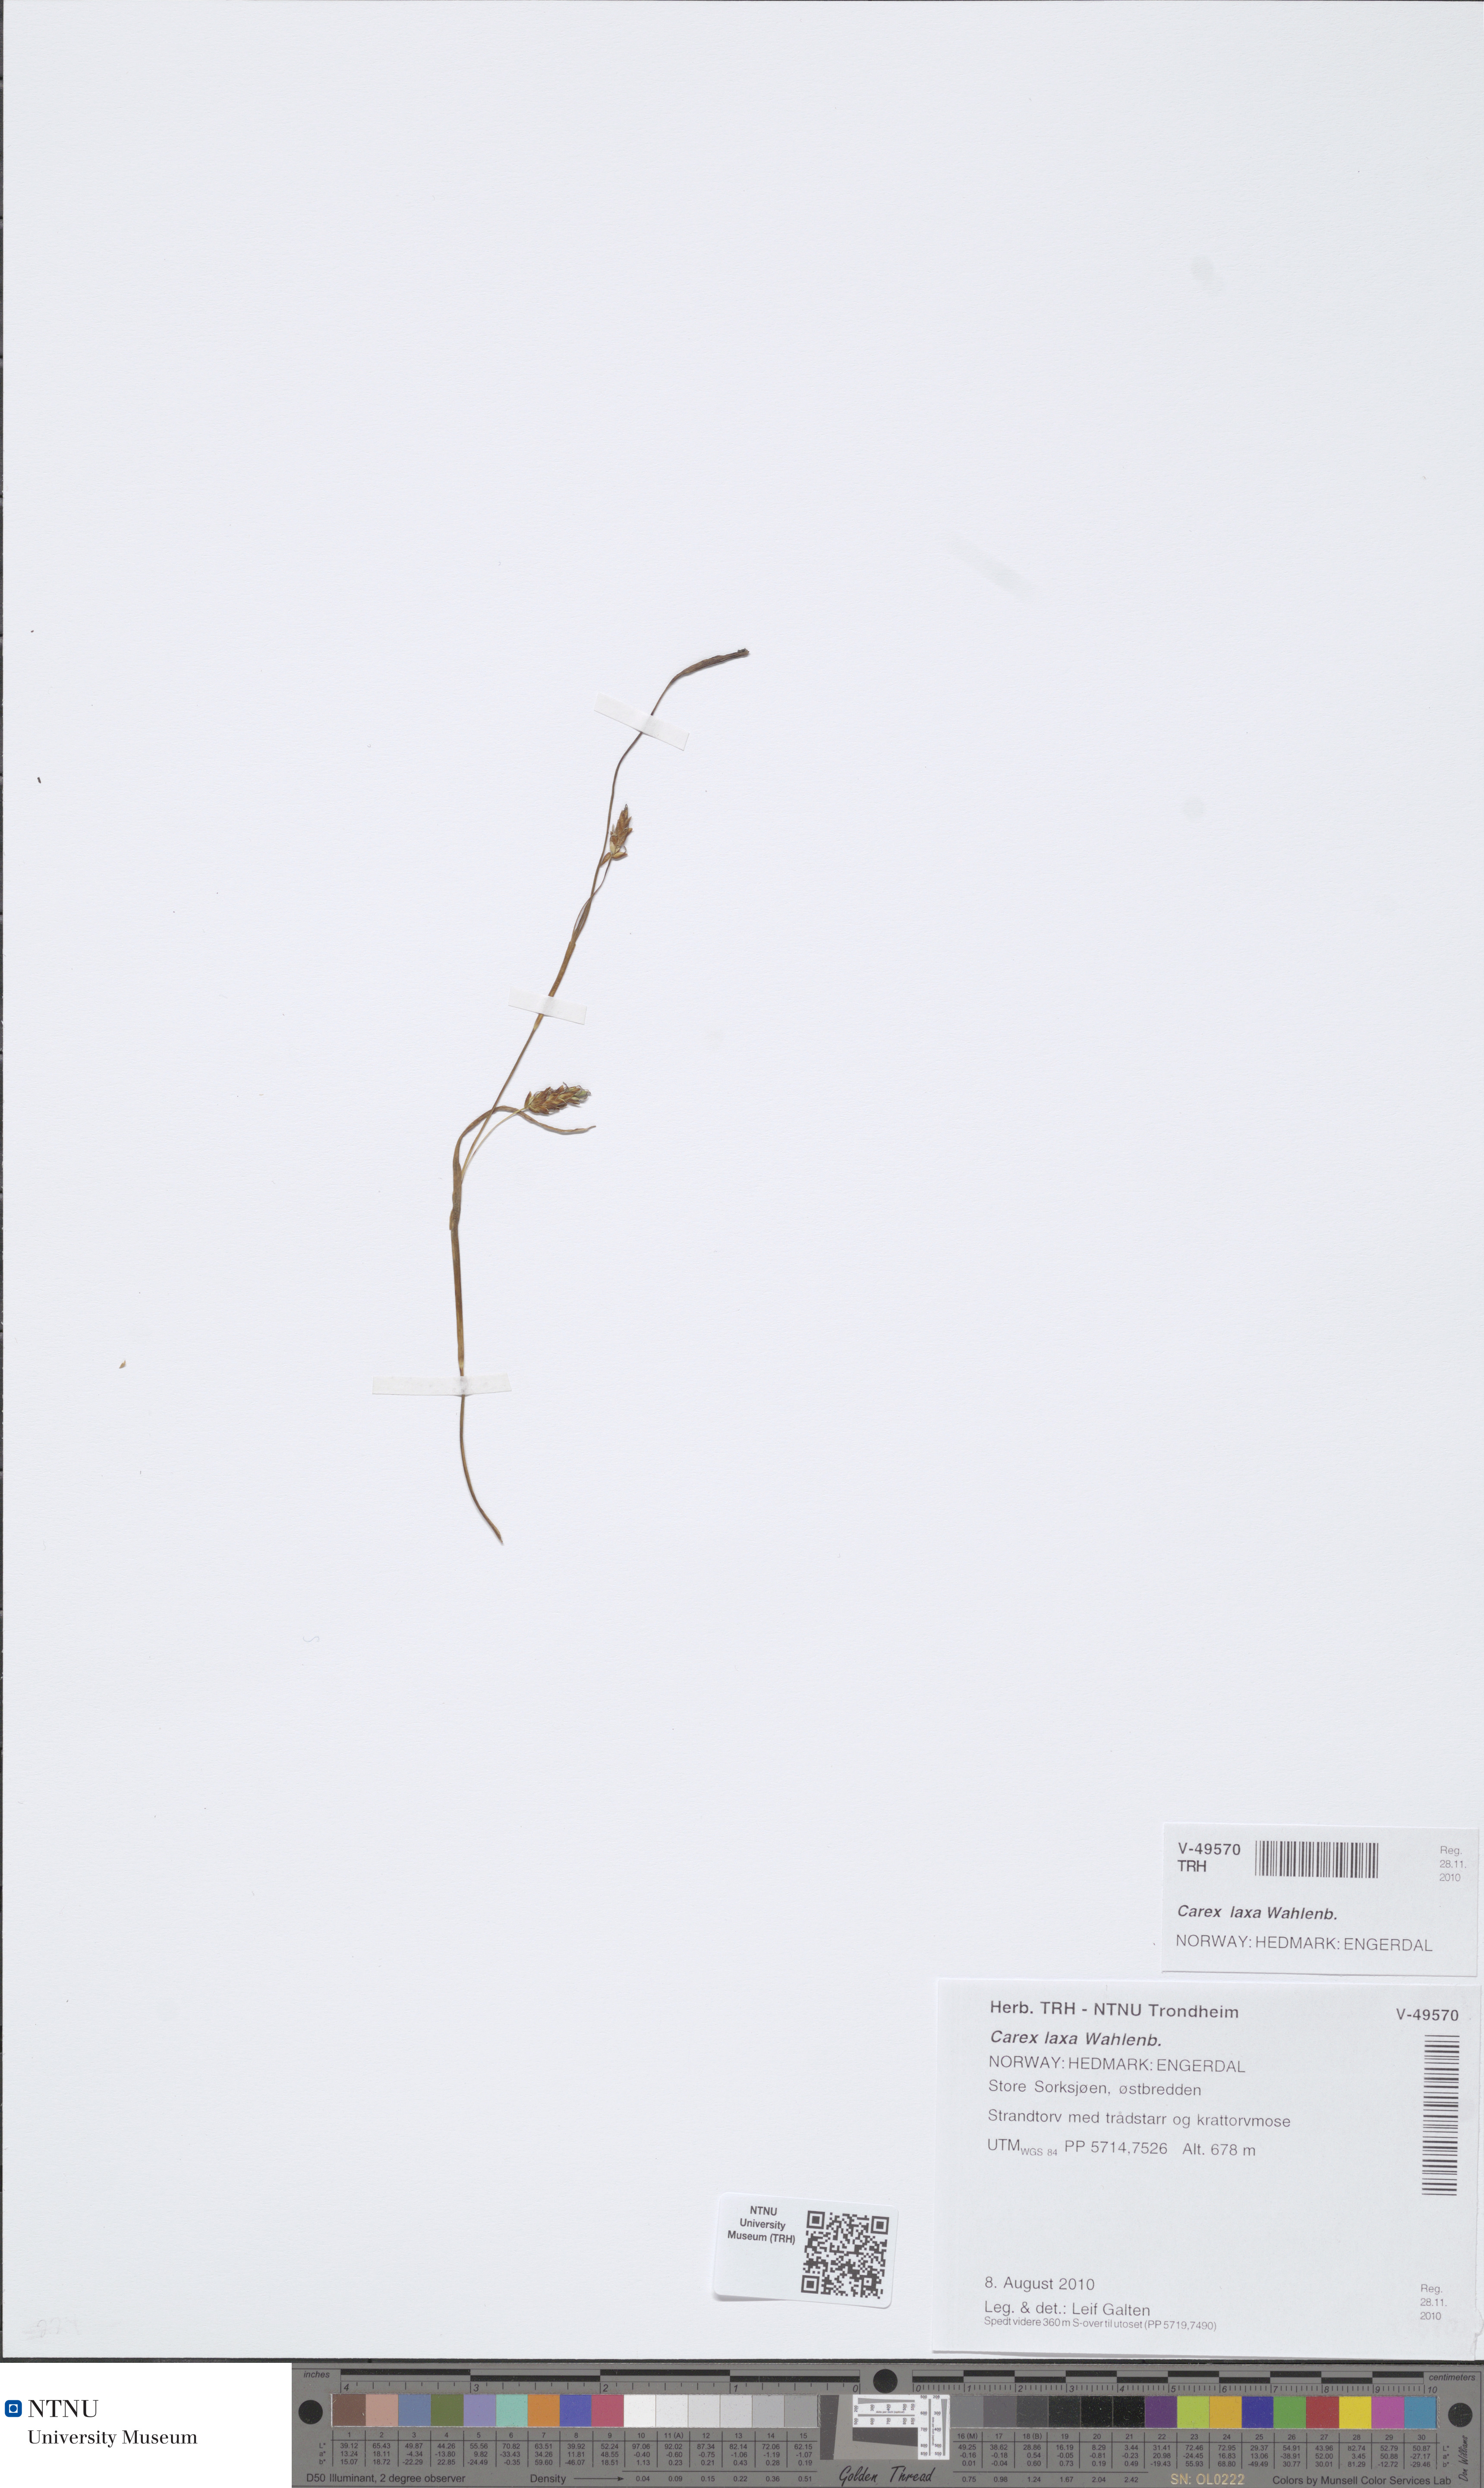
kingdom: Plantae
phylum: Tracheophyta
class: Liliopsida
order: Poales
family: Cyperaceae
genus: Carex
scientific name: Carex laxa
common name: Weak sedge
